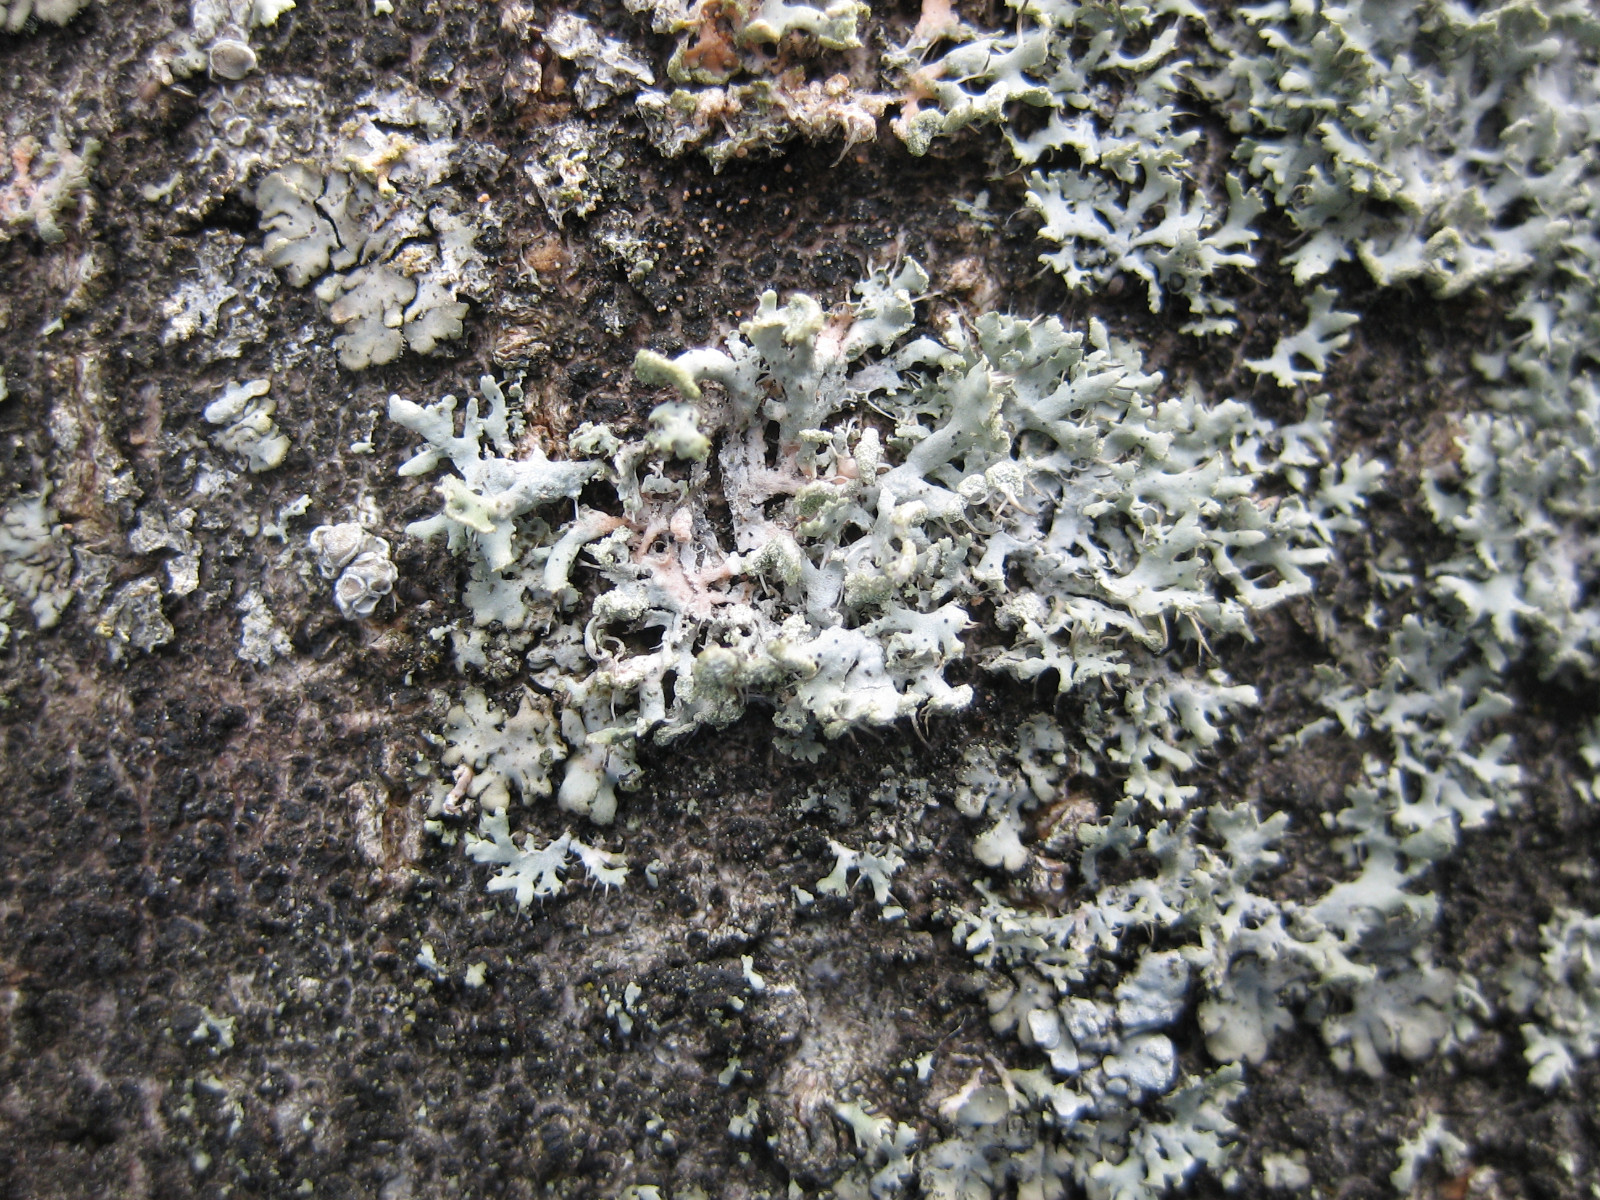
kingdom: Fungi
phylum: Ascomycota
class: Lecanoromycetes
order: Caliciales
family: Physciaceae
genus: Physcia
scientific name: Physcia tenella
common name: spæd rosetlav
